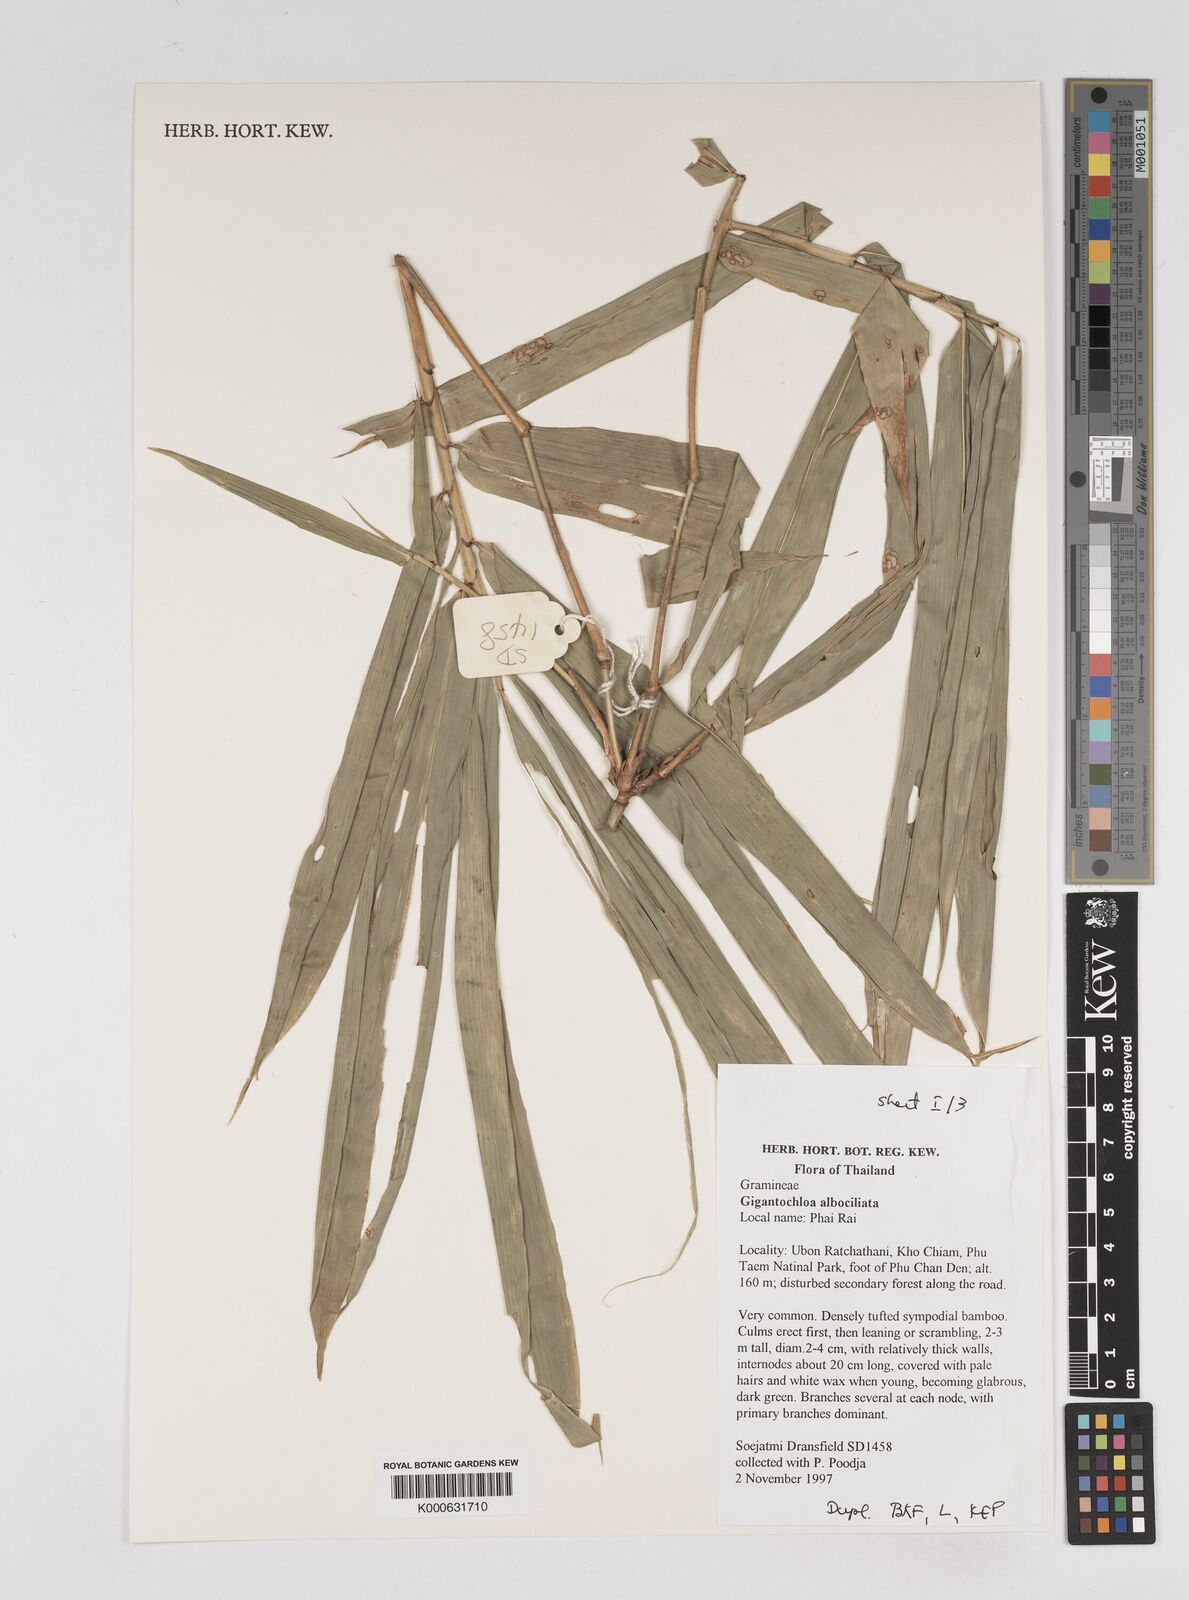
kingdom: Plantae
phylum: Tracheophyta
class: Liliopsida
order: Poales
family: Poaceae
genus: Gigantochloa
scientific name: Gigantochloa albociliata
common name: White-fringe gigantochloa
